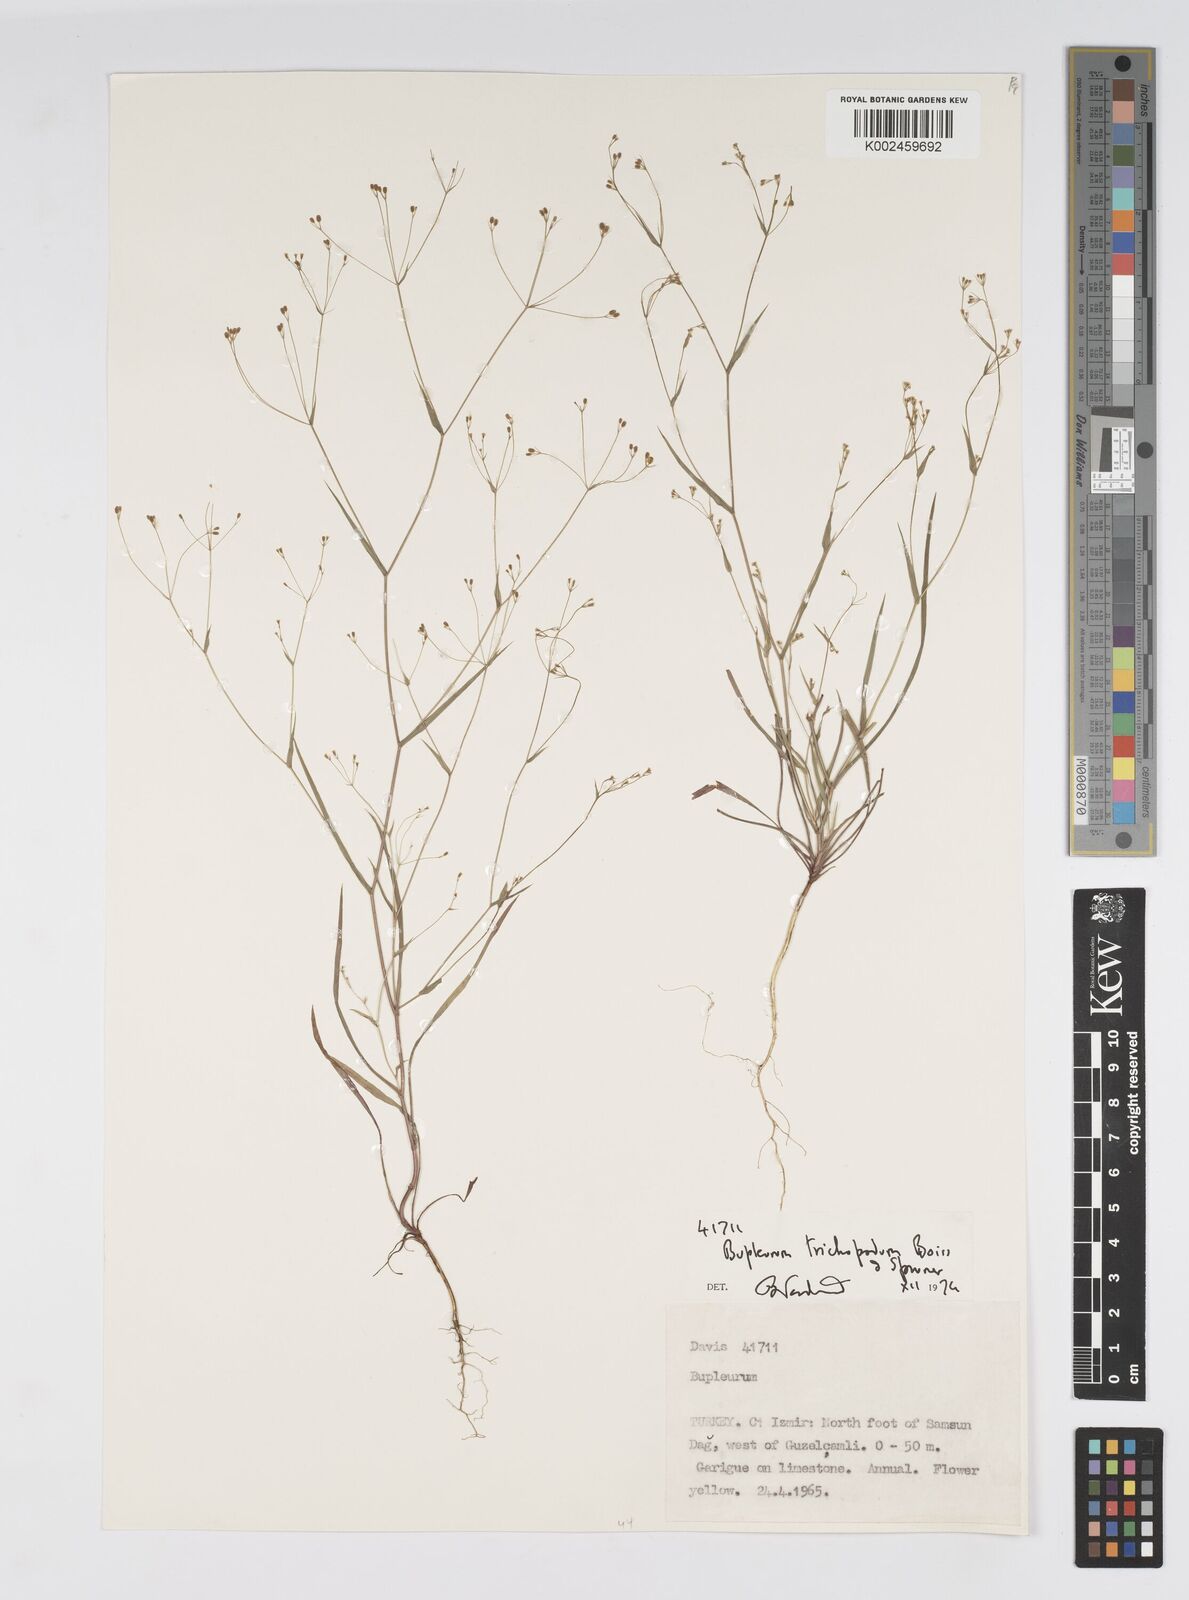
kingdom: Plantae
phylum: Tracheophyta
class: Magnoliopsida
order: Apiales
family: Apiaceae
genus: Bupleurum
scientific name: Bupleurum trichopodum
